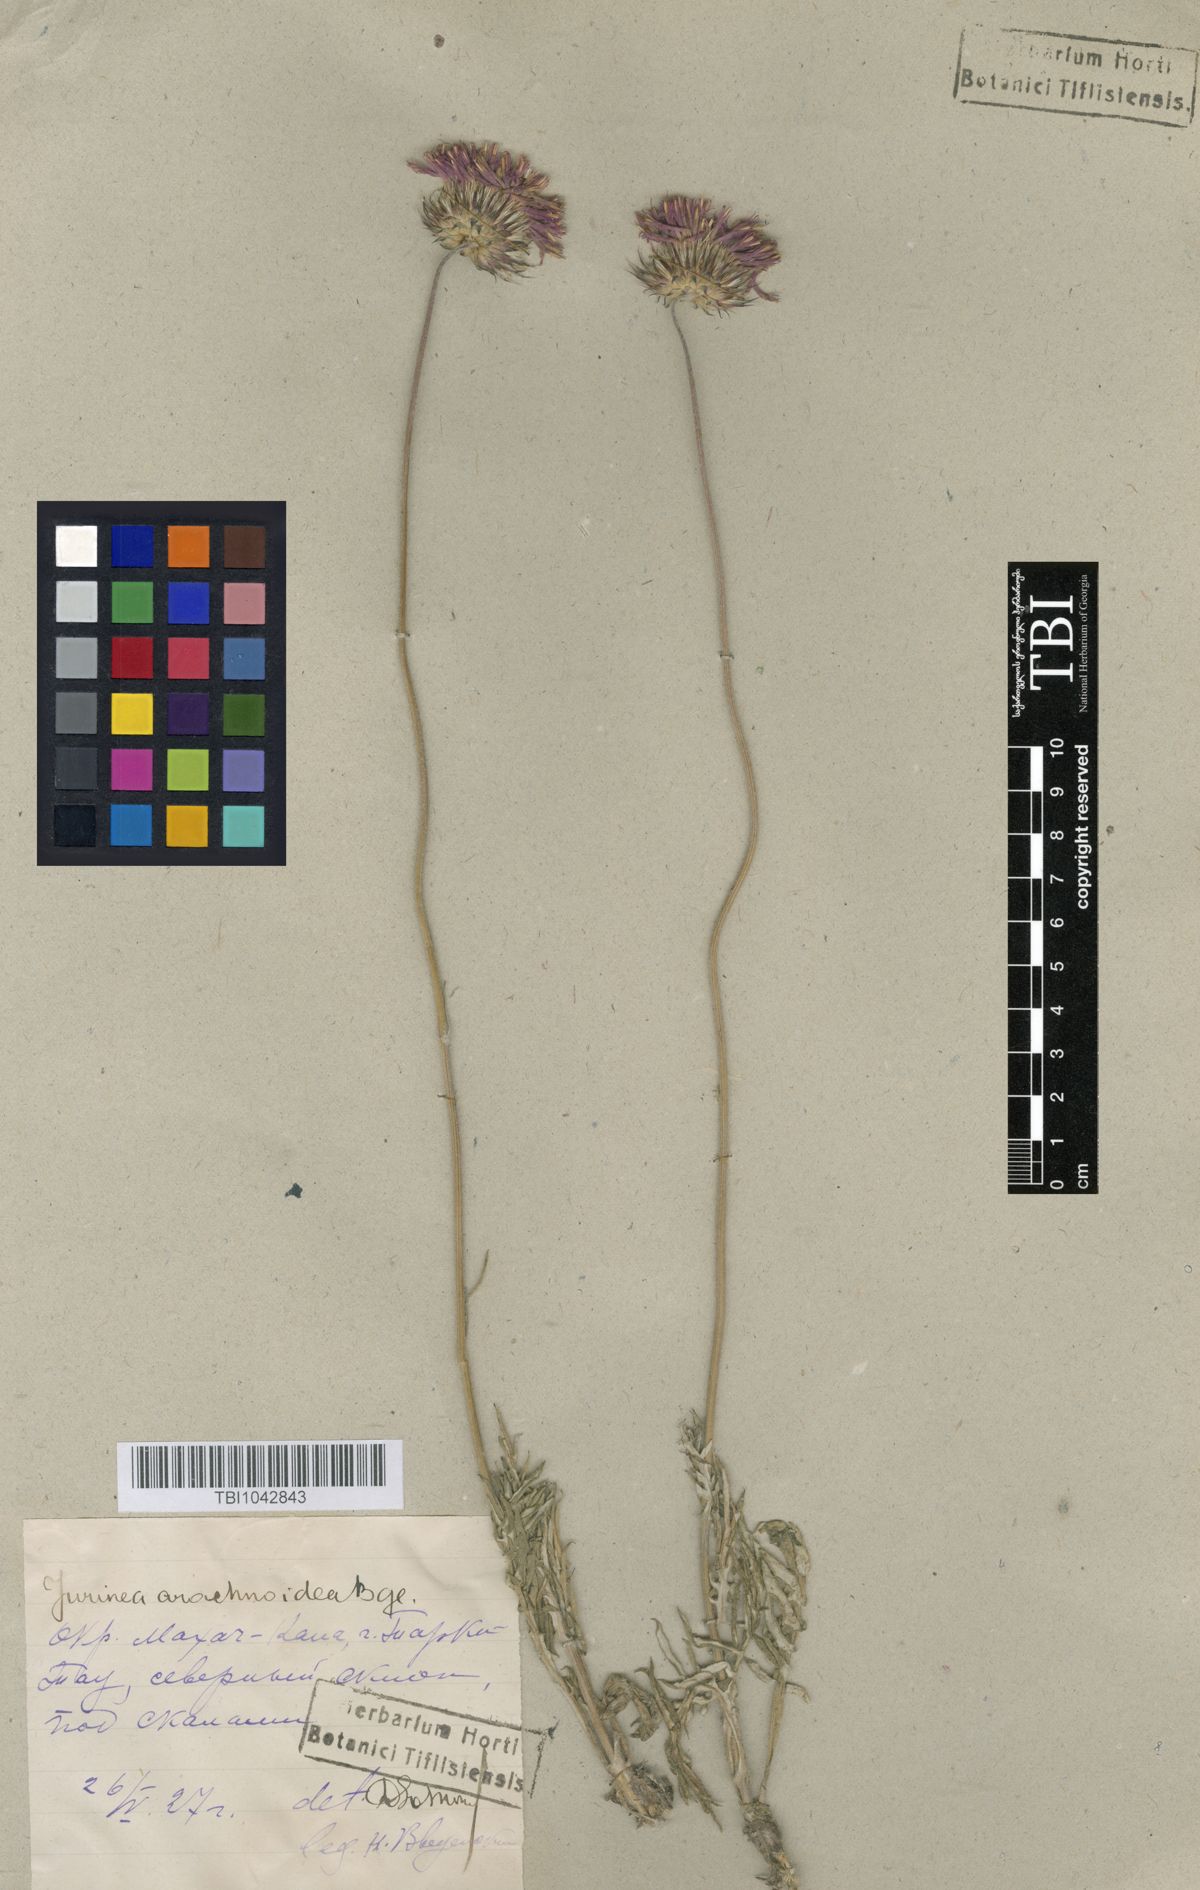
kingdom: Plantae
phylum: Tracheophyta
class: Magnoliopsida
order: Asterales
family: Asteraceae
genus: Jurinea
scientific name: Jurinea blanda
